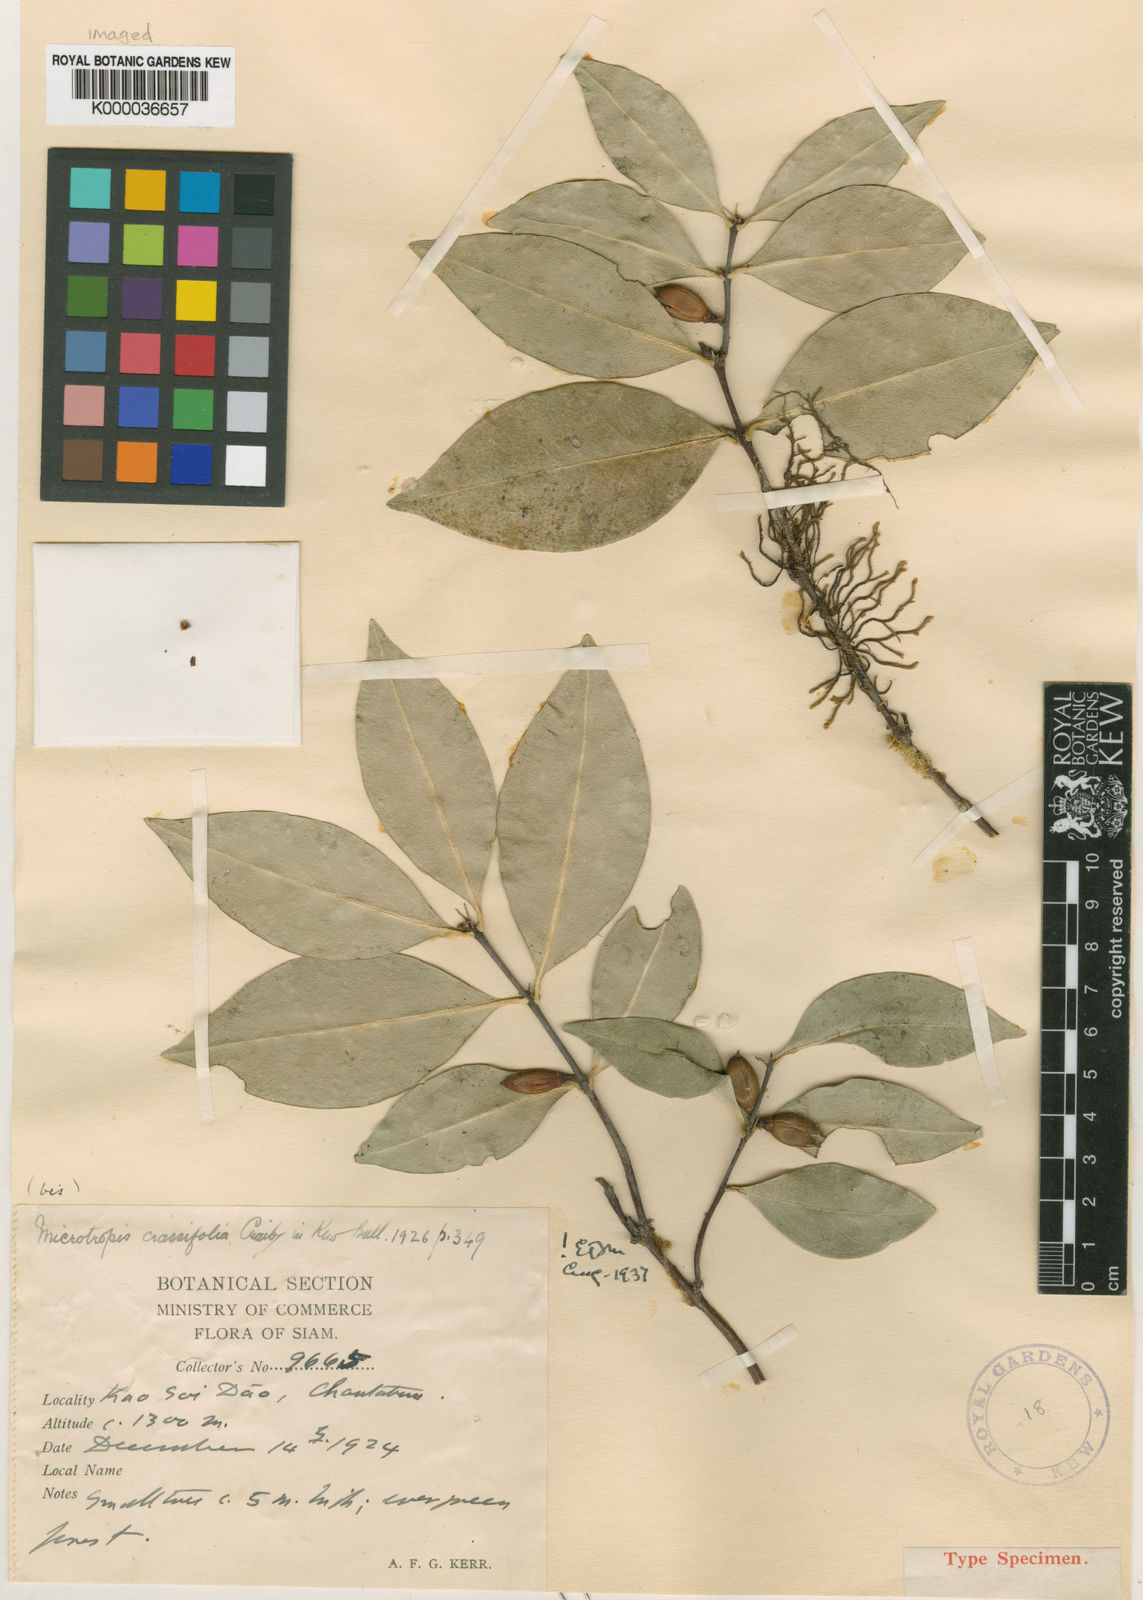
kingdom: Plantae
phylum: Tracheophyta
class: Magnoliopsida
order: Celastrales
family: Celastraceae
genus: Microtropis
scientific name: Microtropis crassifolia
